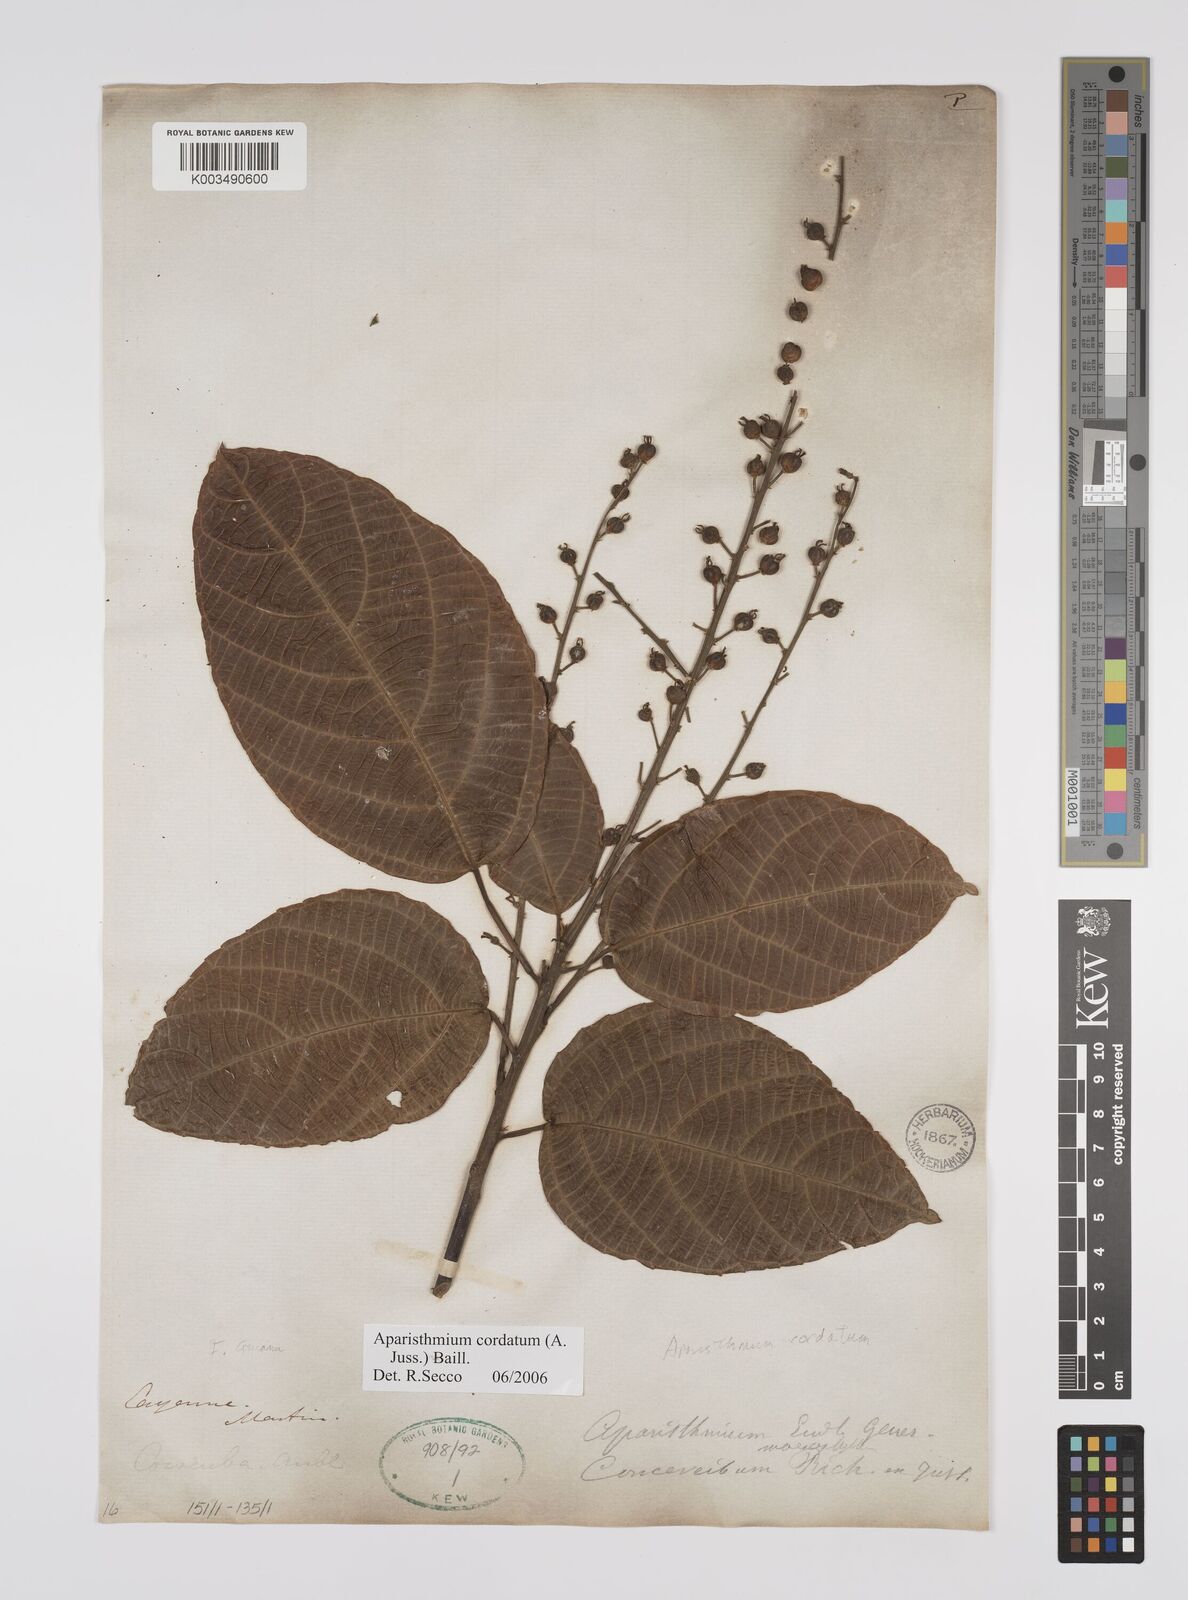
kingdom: Plantae
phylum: Tracheophyta
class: Magnoliopsida
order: Malpighiales
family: Euphorbiaceae
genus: Aparisthmium
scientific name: Aparisthmium cordatum
